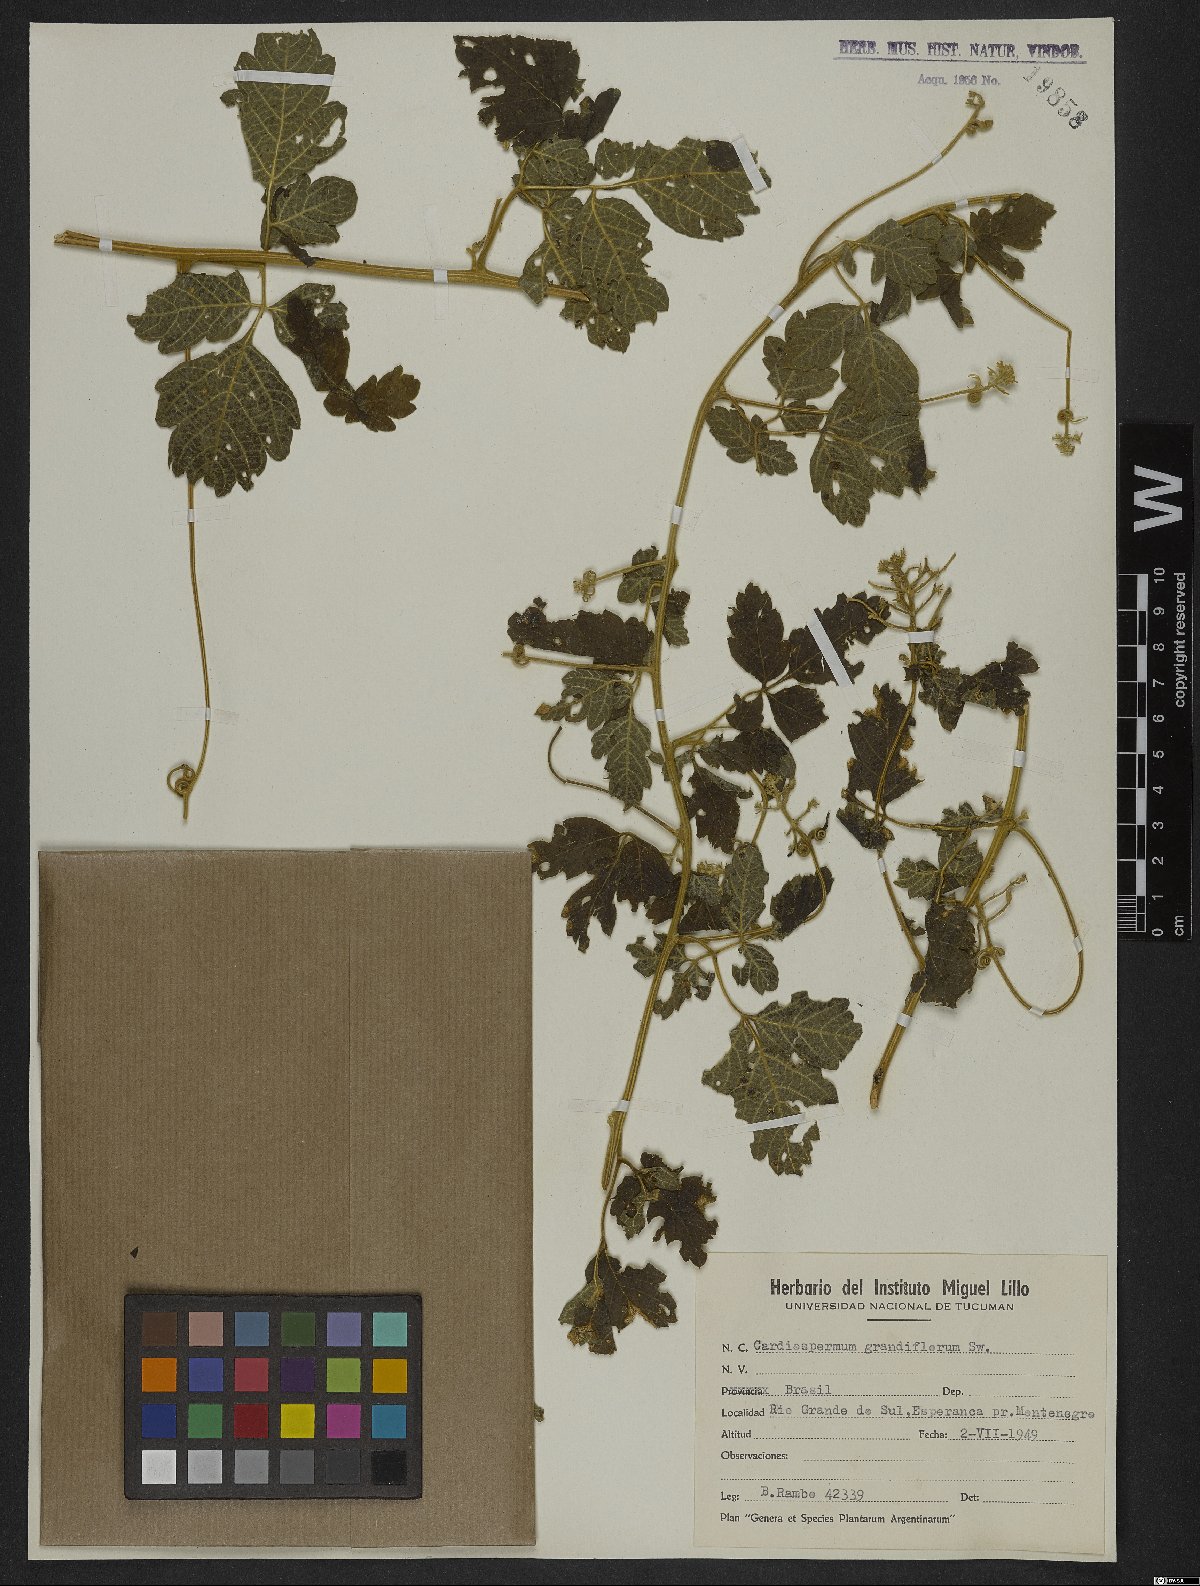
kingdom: Plantae
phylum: Tracheophyta
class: Magnoliopsida
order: Sapindales
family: Sapindaceae
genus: Cardiospermum
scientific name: Cardiospermum grandiflorum
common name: Balloon vine
